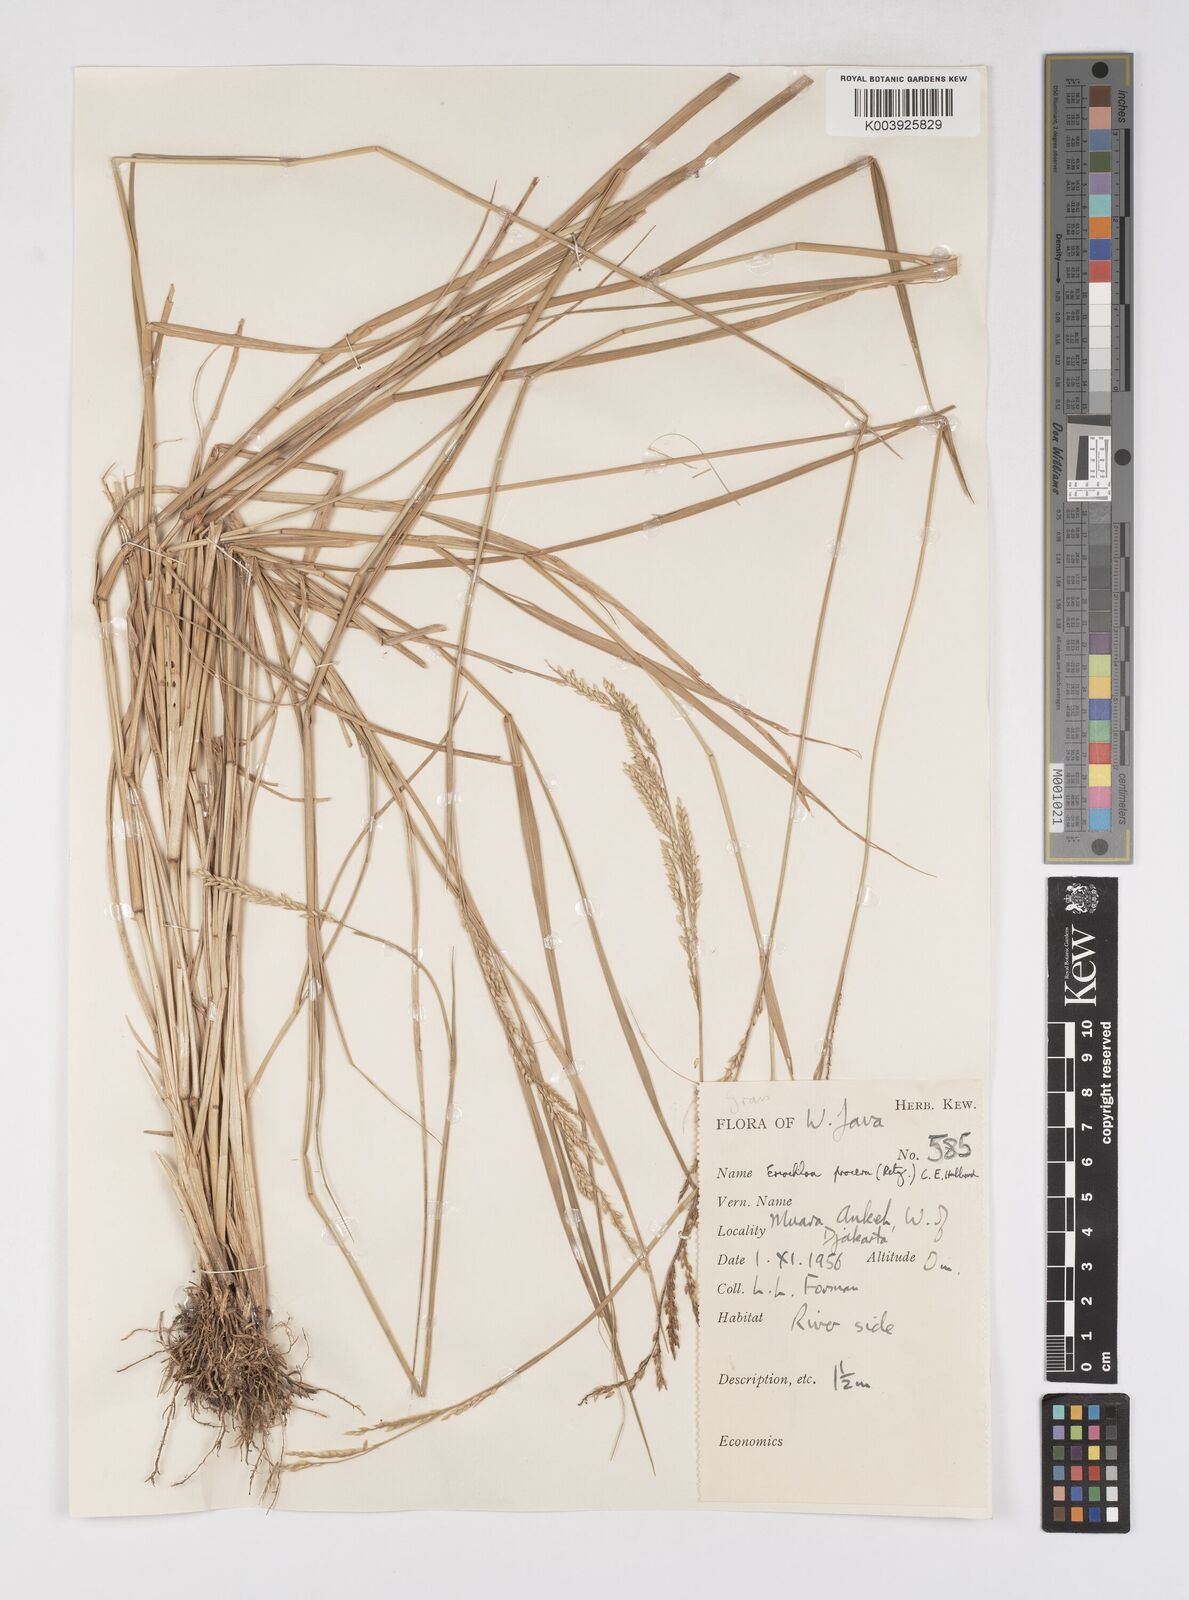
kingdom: Plantae
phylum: Tracheophyta
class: Liliopsida
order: Poales
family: Poaceae
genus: Eriochloa
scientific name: Eriochloa procera
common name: Spring grass
